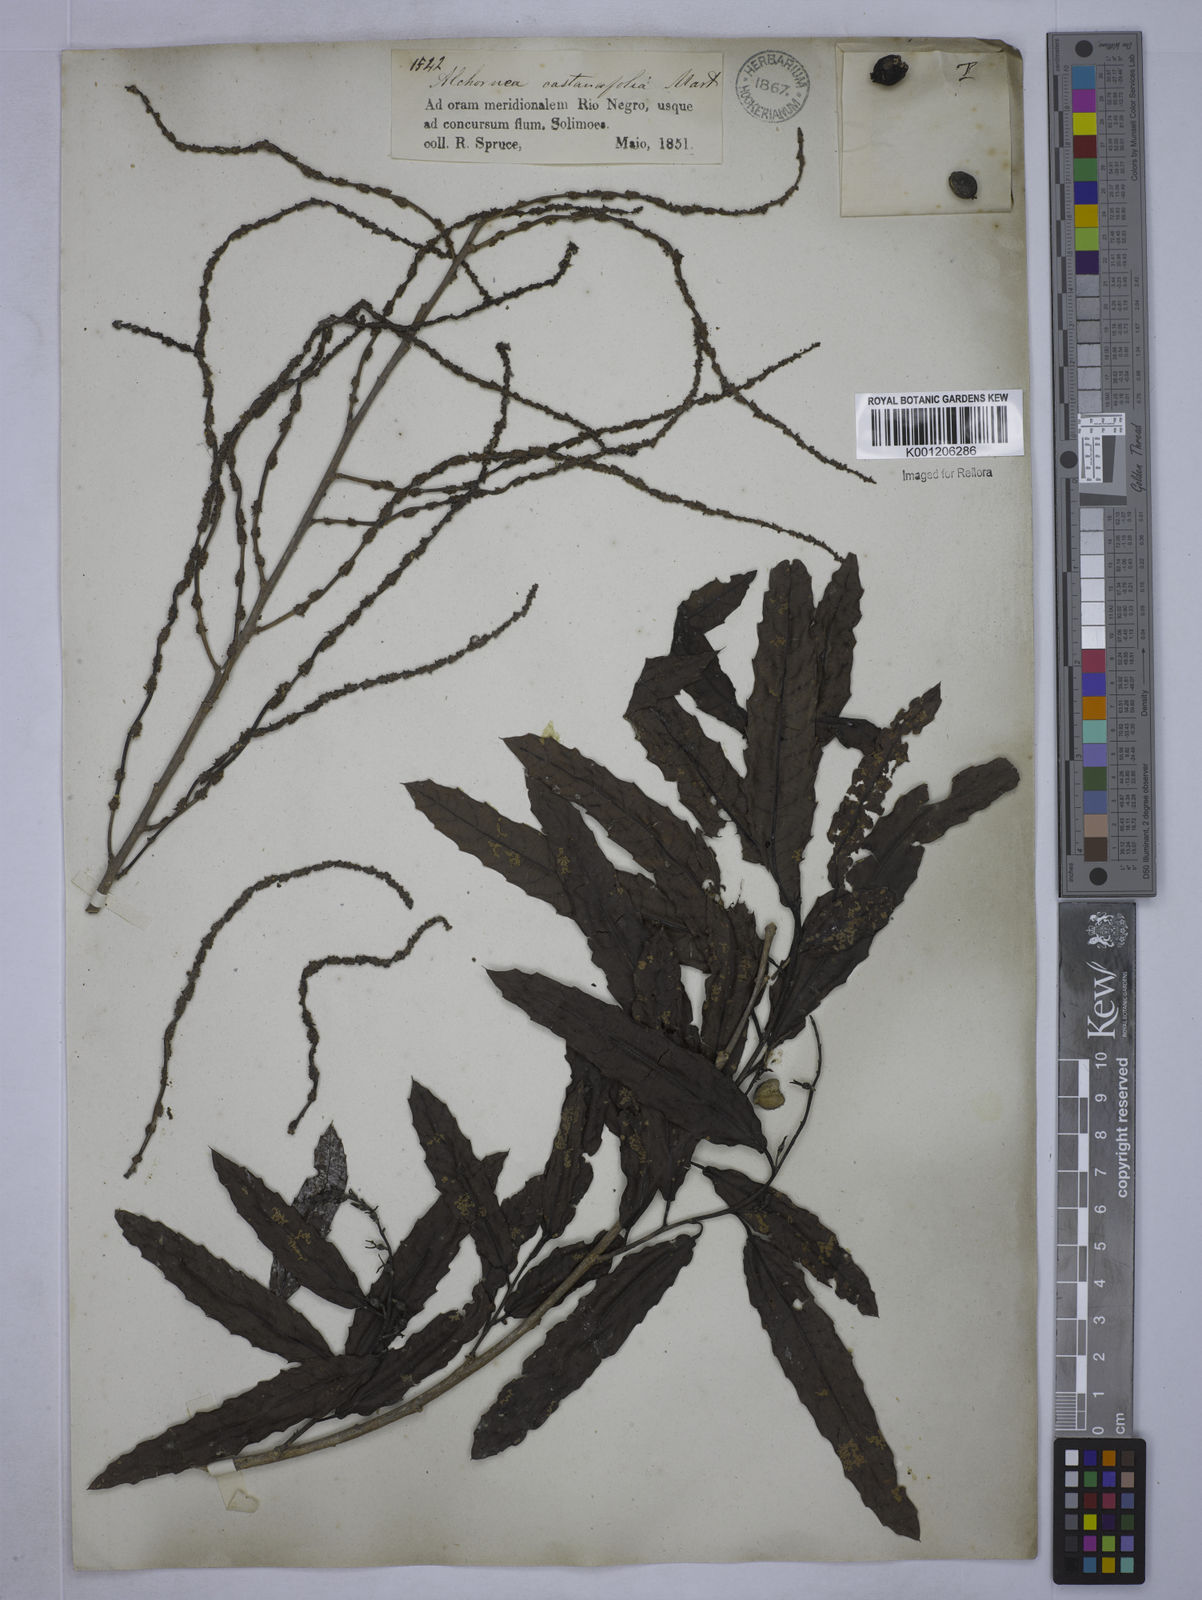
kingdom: Plantae
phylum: Tracheophyta
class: Magnoliopsida
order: Malpighiales
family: Euphorbiaceae
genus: Alchornea
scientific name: Alchornea castaneifolia
